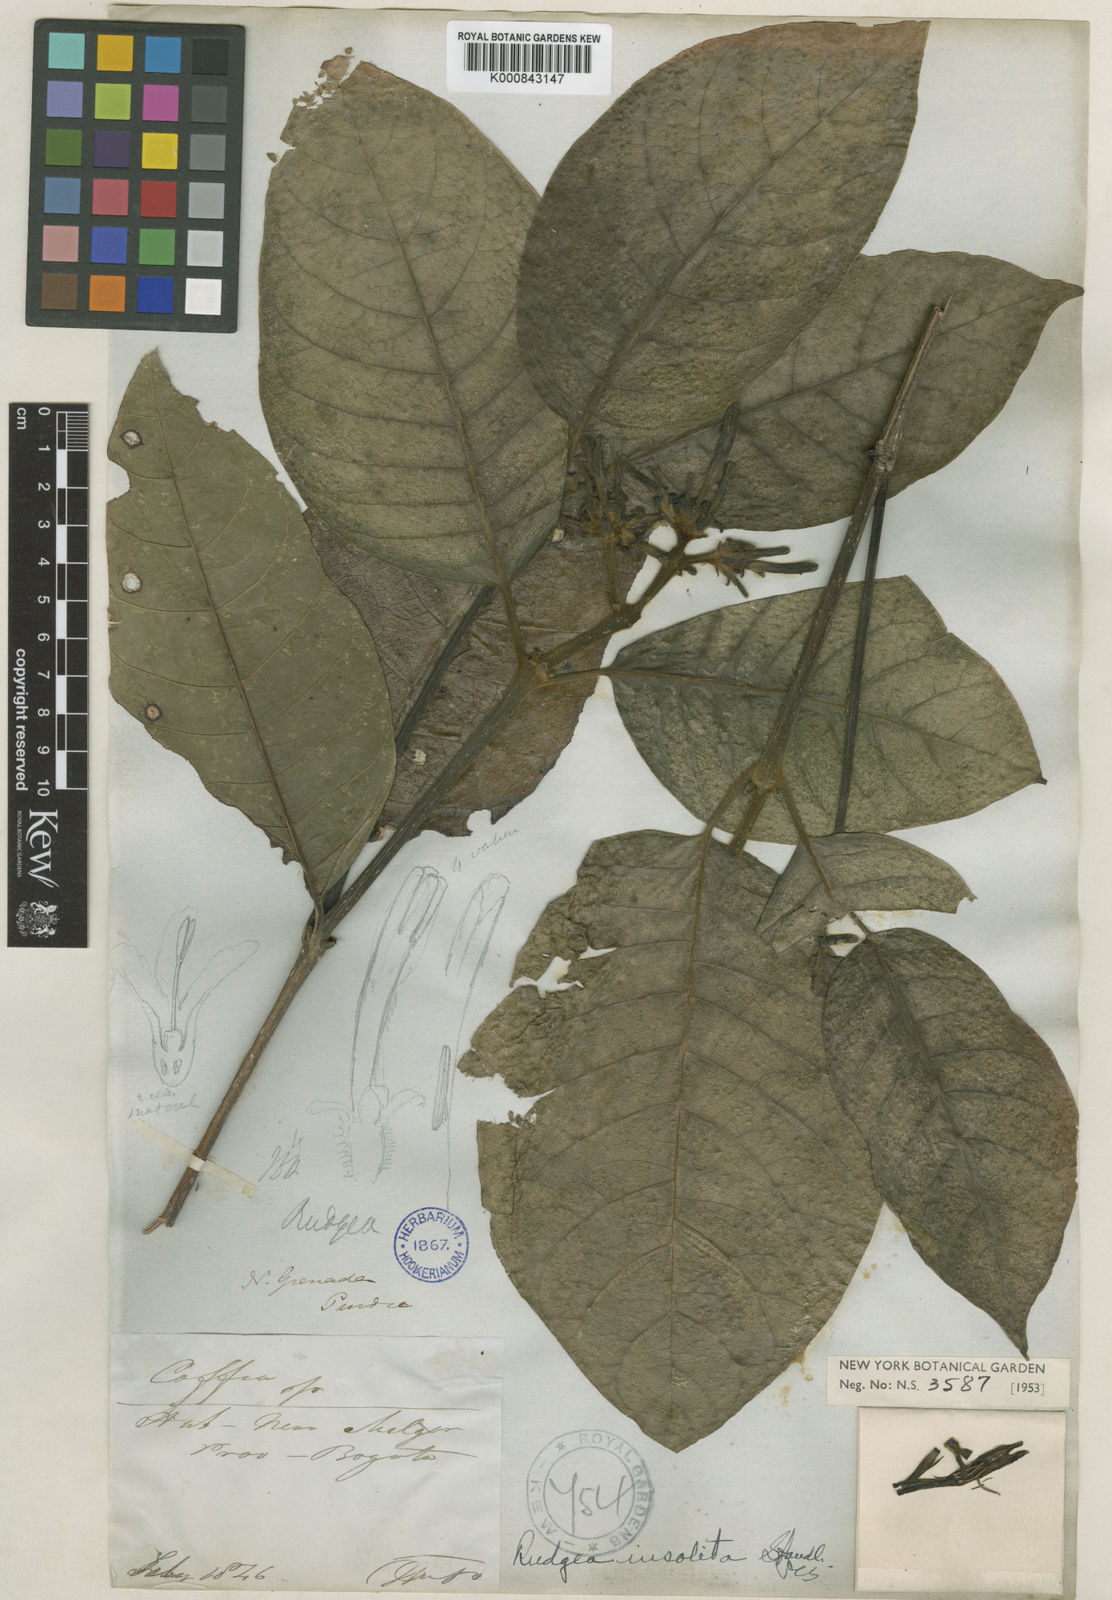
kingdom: Plantae
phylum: Tracheophyta
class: Magnoliopsida
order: Gentianales
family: Rubiaceae
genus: Coussarea
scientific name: Coussarea insolita
